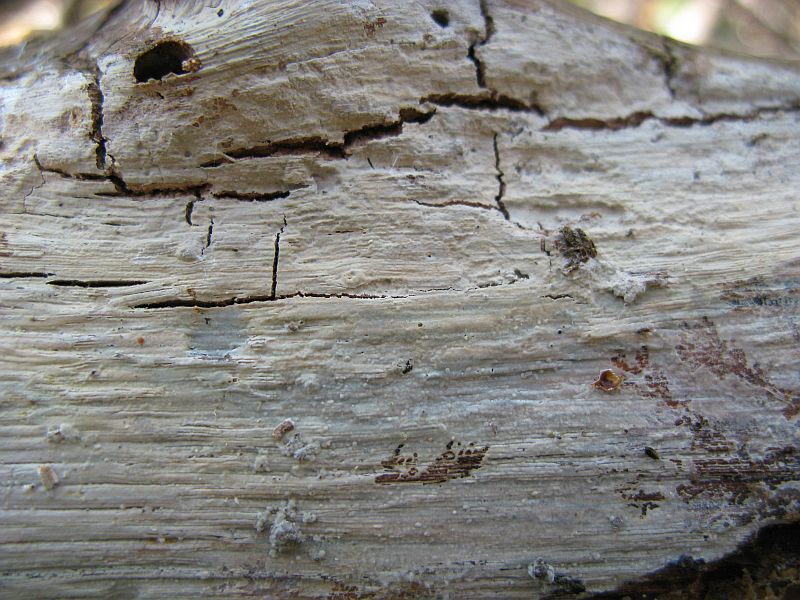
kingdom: Fungi
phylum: Basidiomycota
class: Agaricomycetes
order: Hymenochaetales
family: Rickenellaceae
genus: Peniophorella
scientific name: Peniophorella praetermissa
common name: almindelig kalkskind
